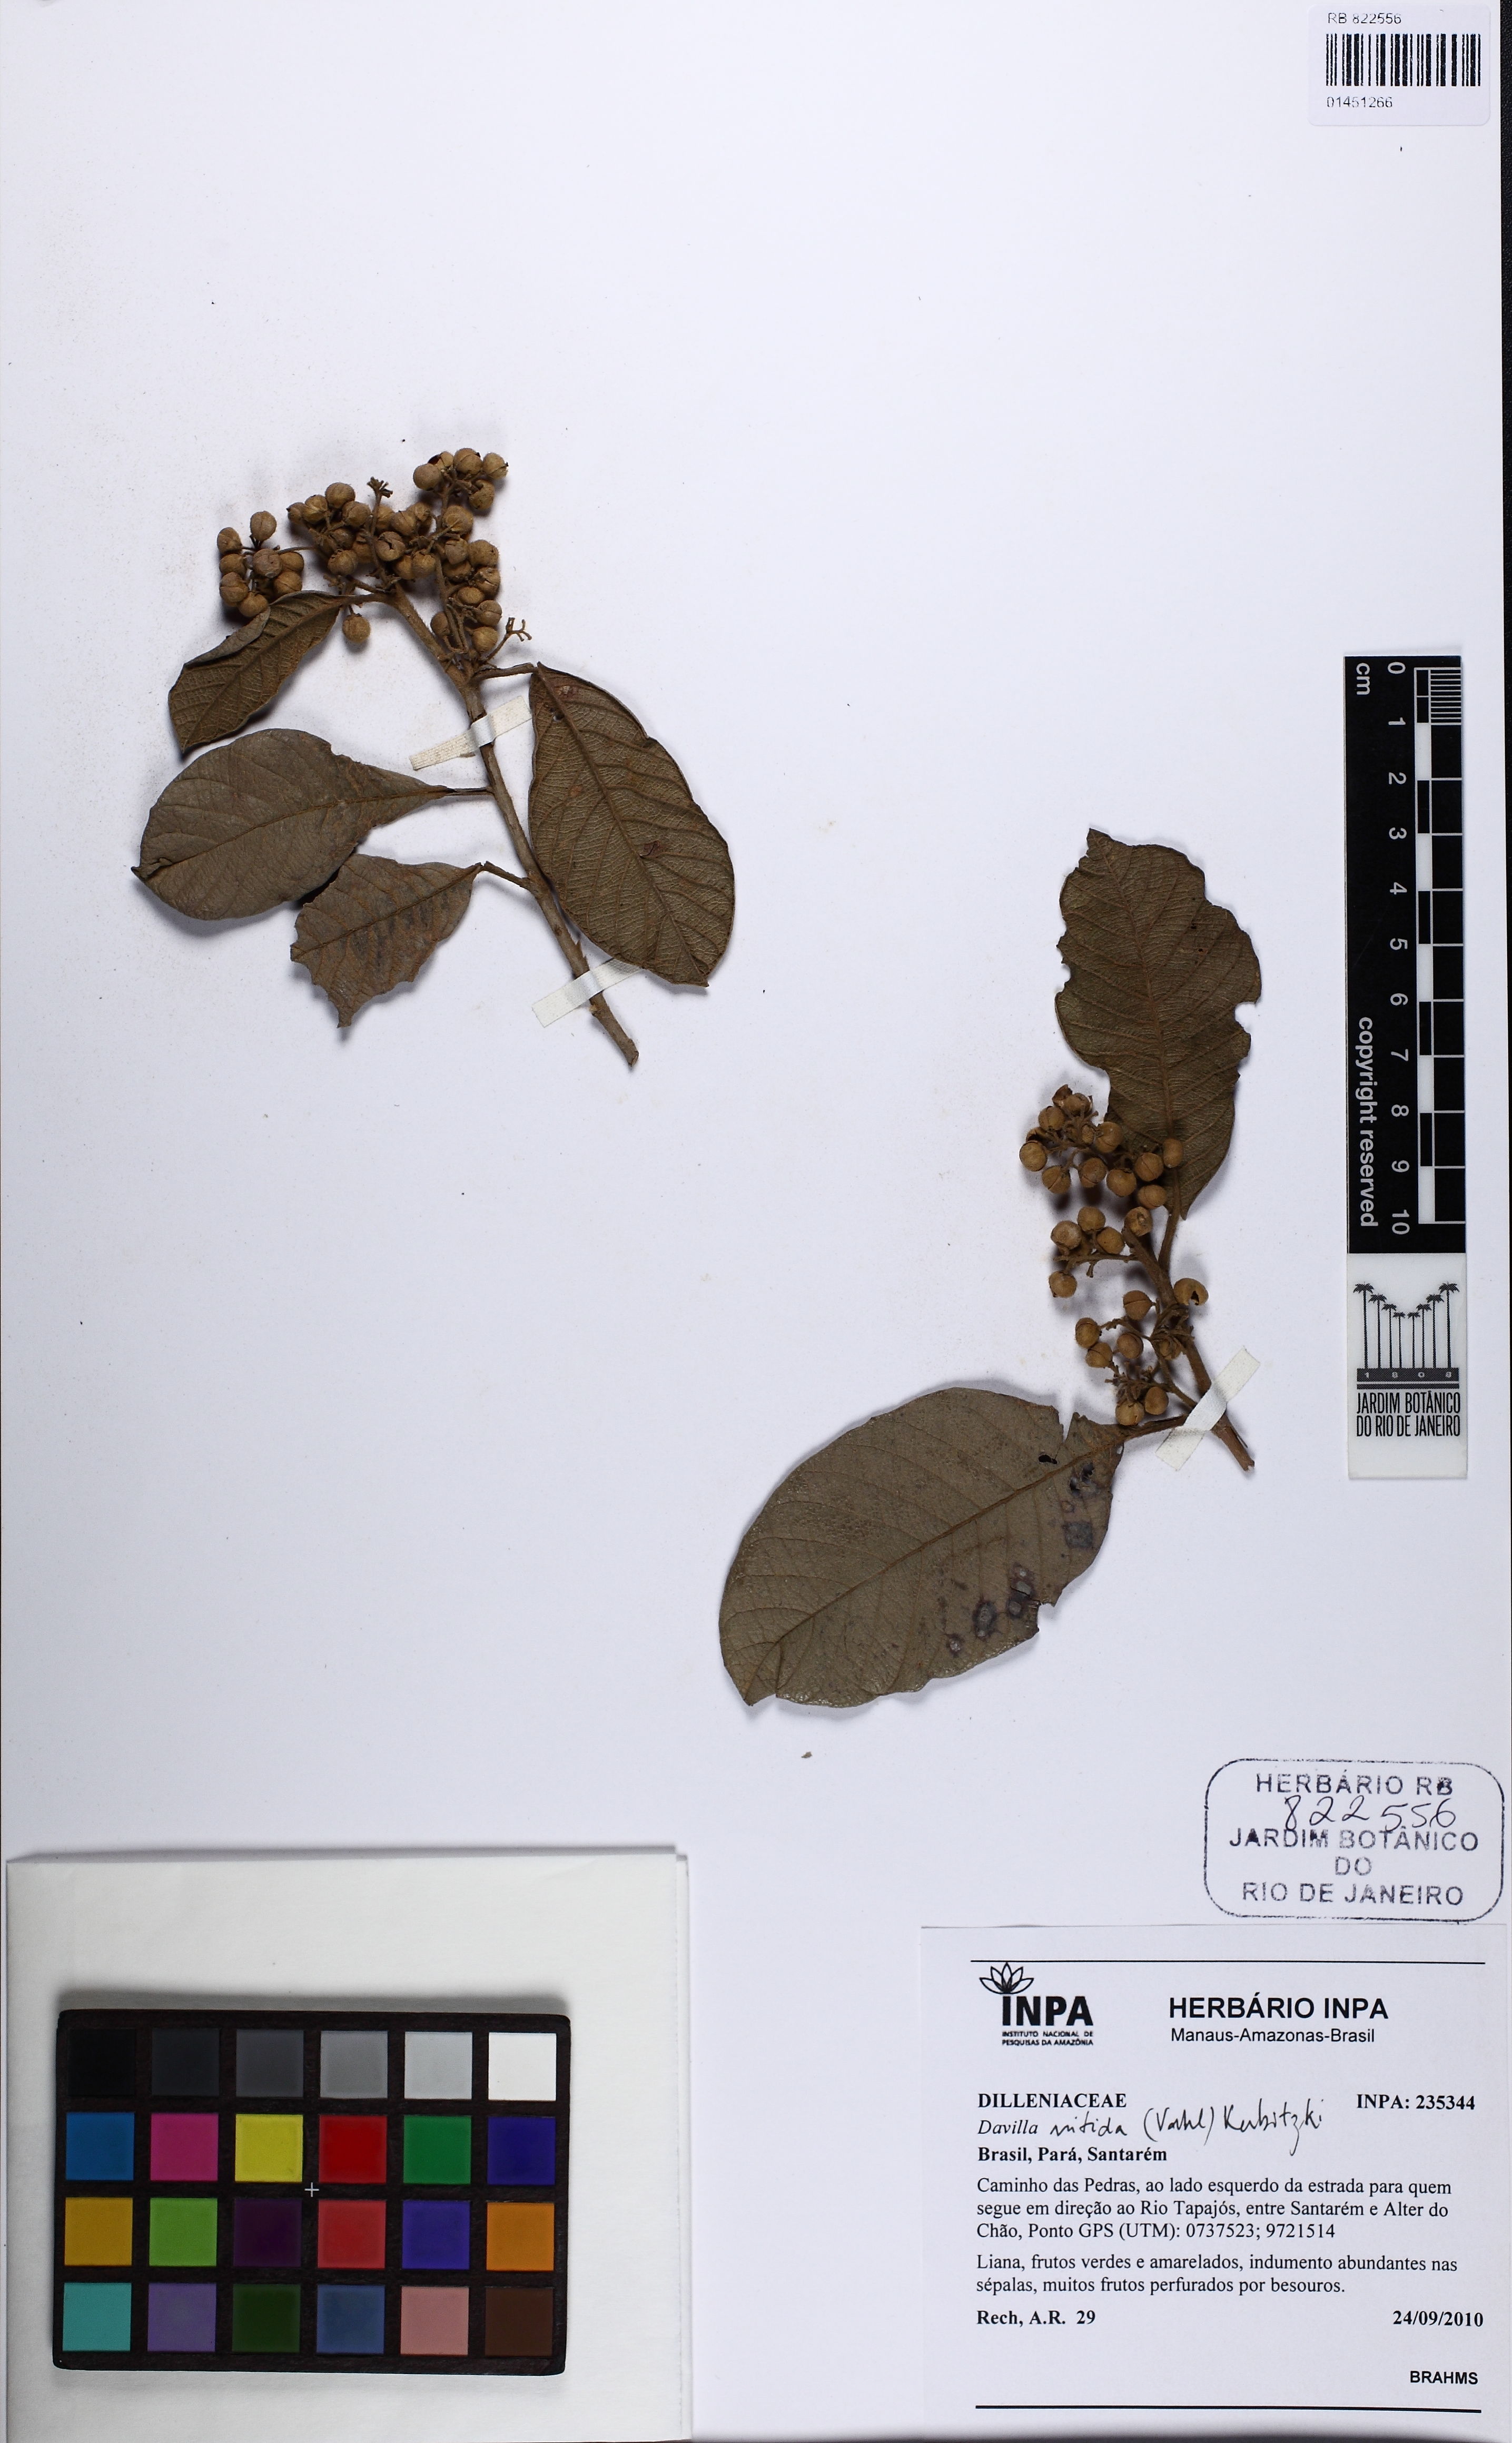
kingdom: Plantae
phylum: Tracheophyta
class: Magnoliopsida
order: Dilleniales
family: Dilleniaceae
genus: Davilla
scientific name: Davilla nitida
